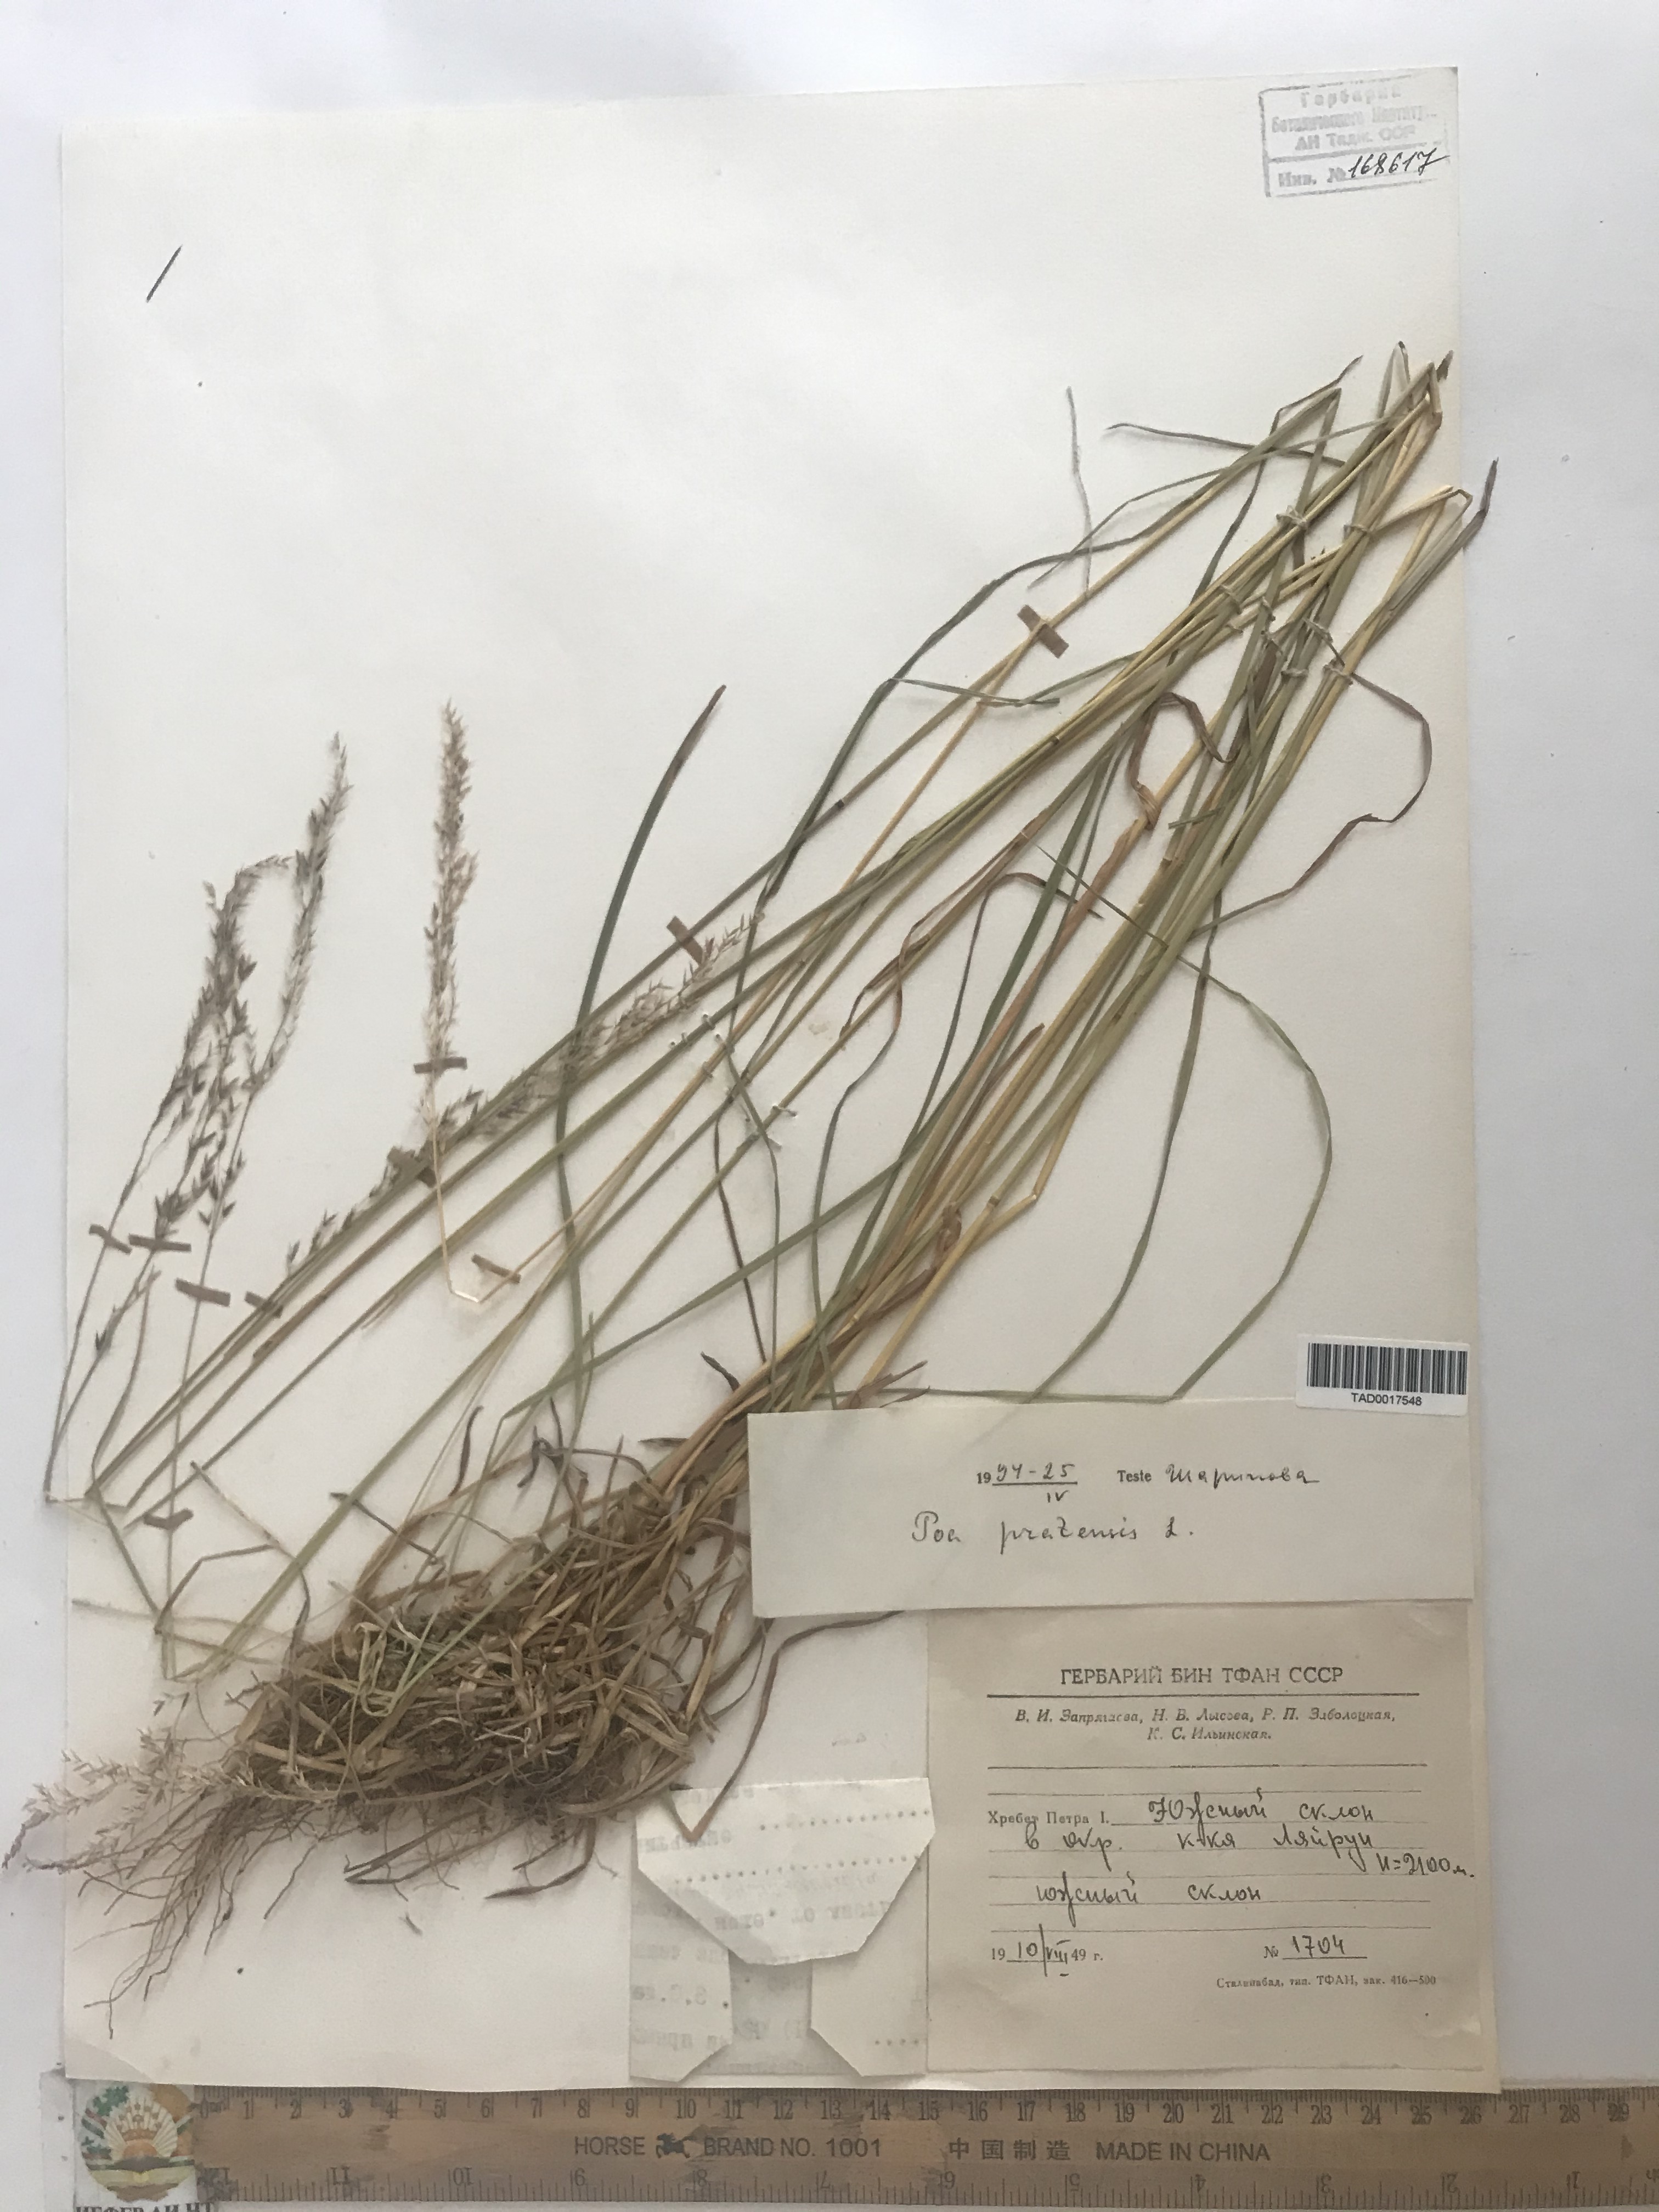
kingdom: Plantae
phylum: Tracheophyta
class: Liliopsida
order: Poales
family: Poaceae
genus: Poa
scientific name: Poa pratensis
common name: Kentucky bluegrass
